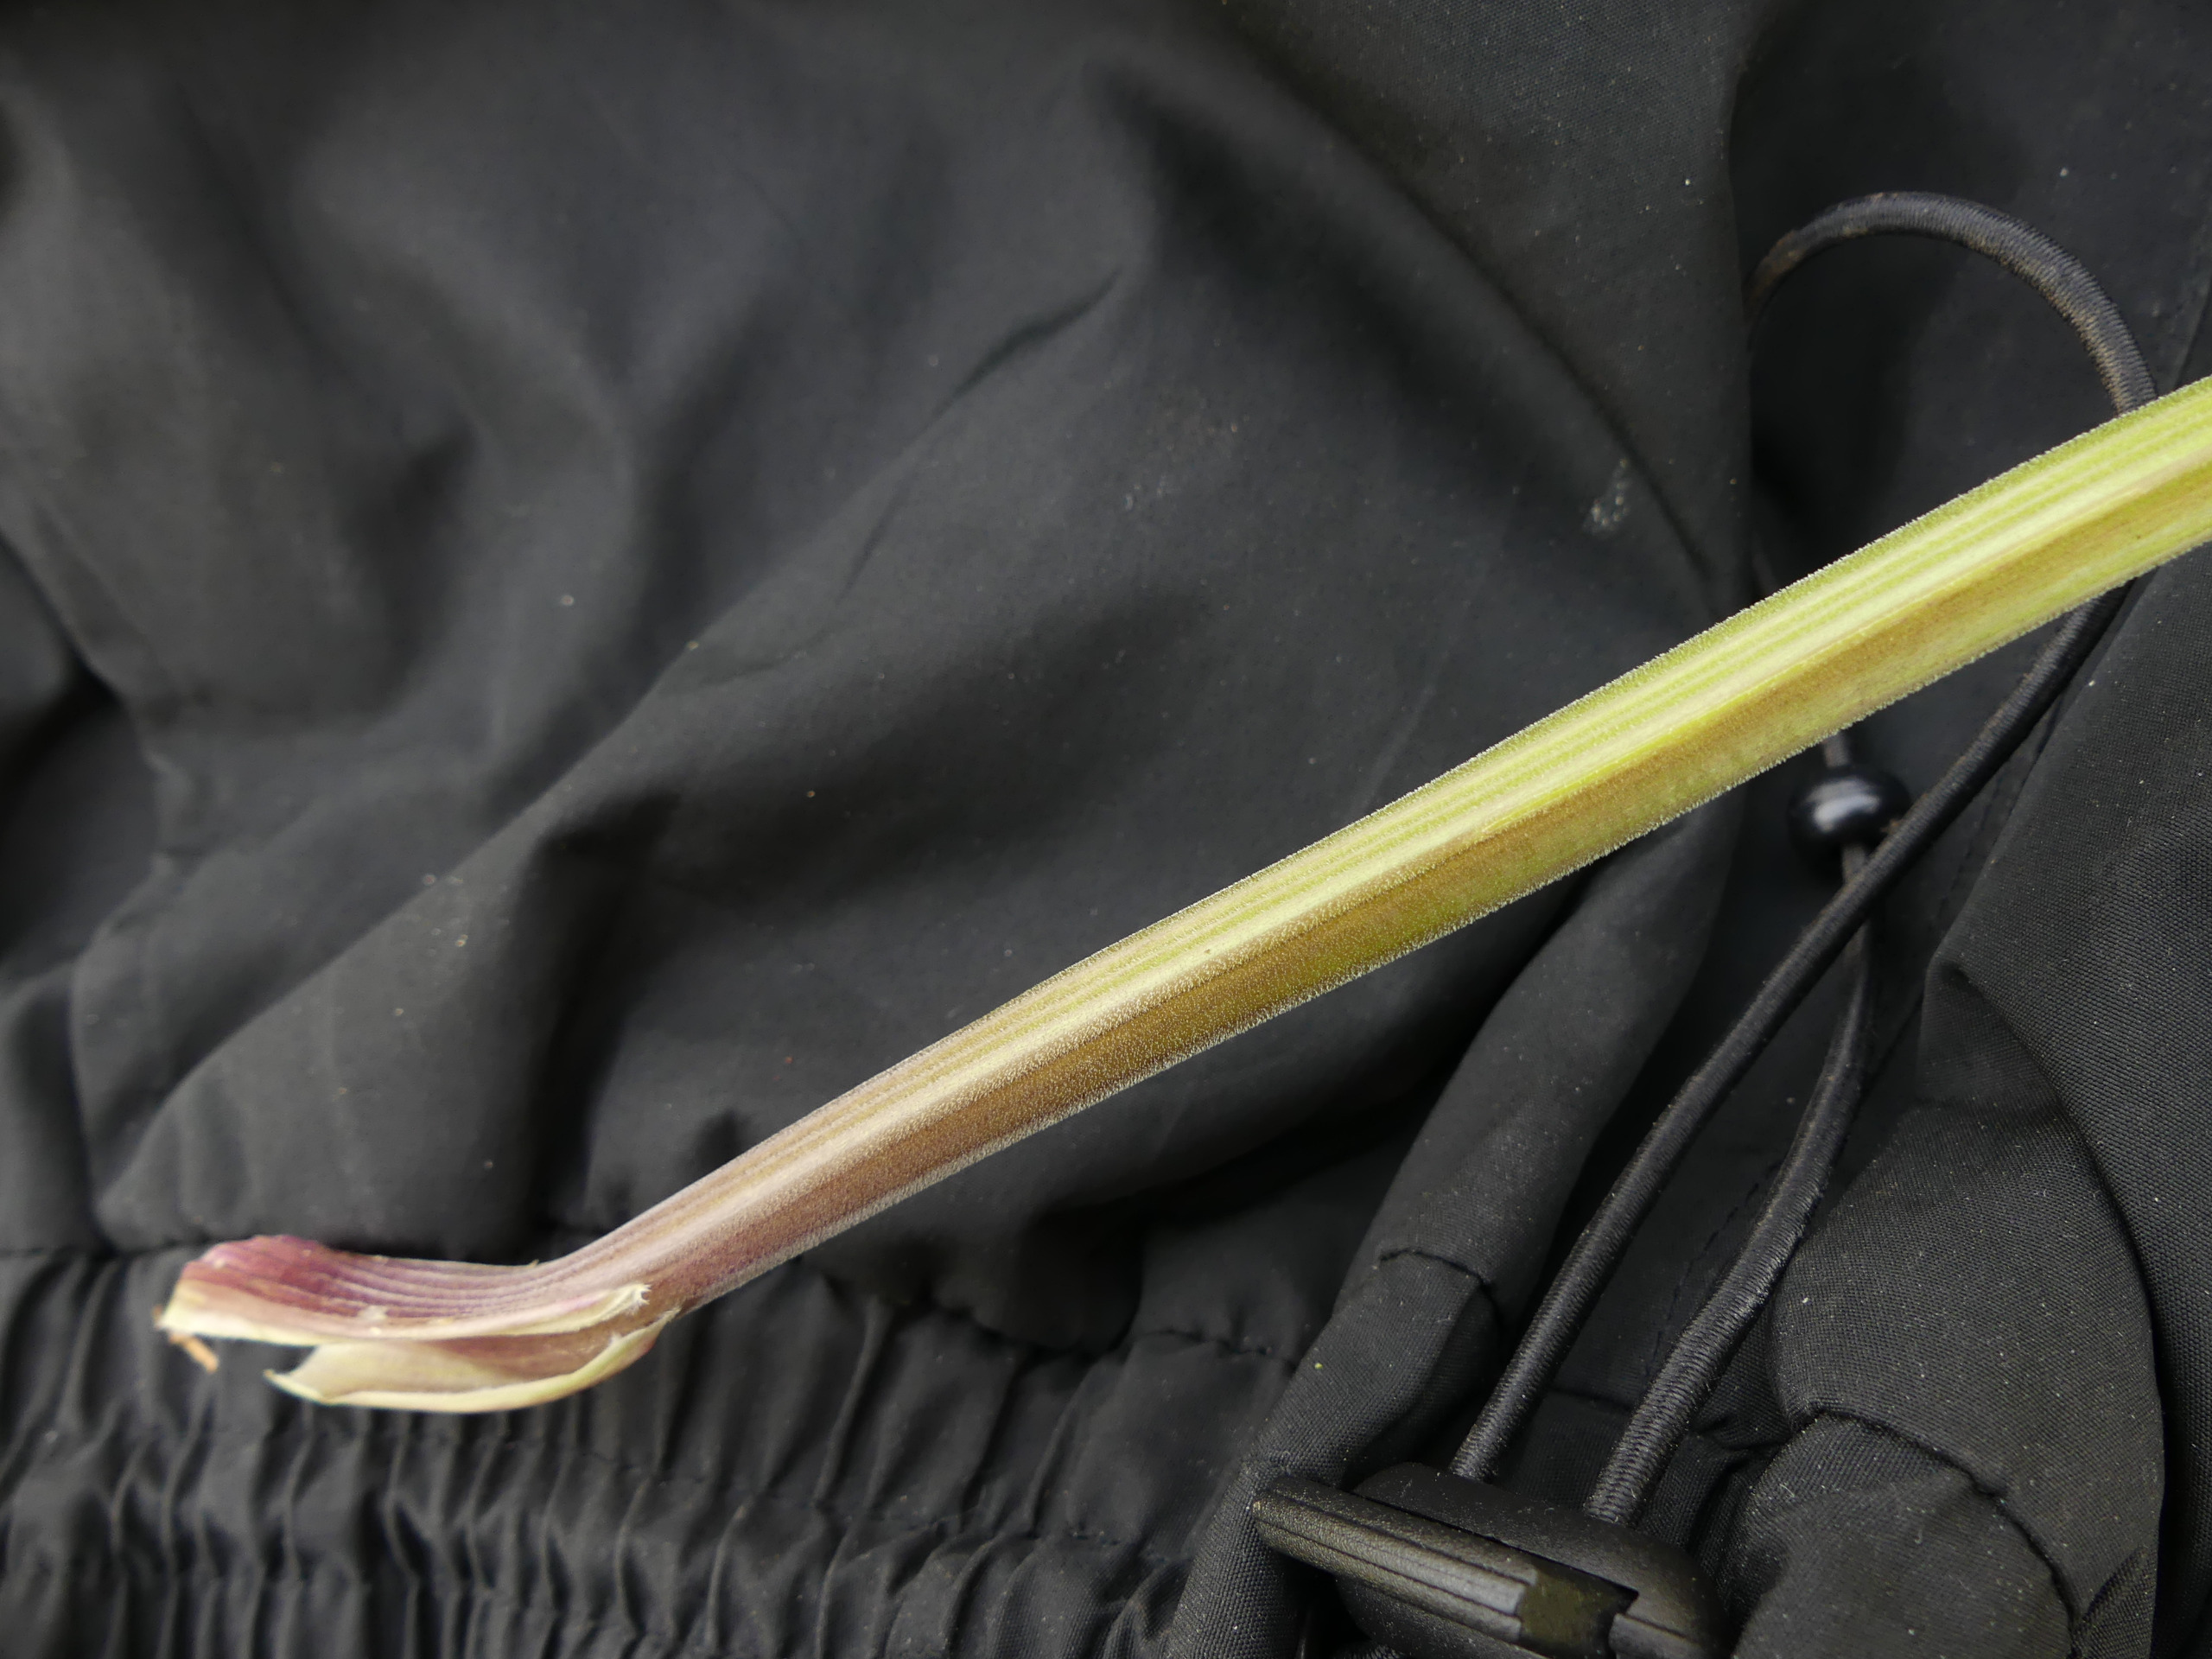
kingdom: Plantae
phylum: Tracheophyta
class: Magnoliopsida
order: Apiales
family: Apiaceae
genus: Anthriscus
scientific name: Anthriscus sylvestris
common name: Vild kørvel
